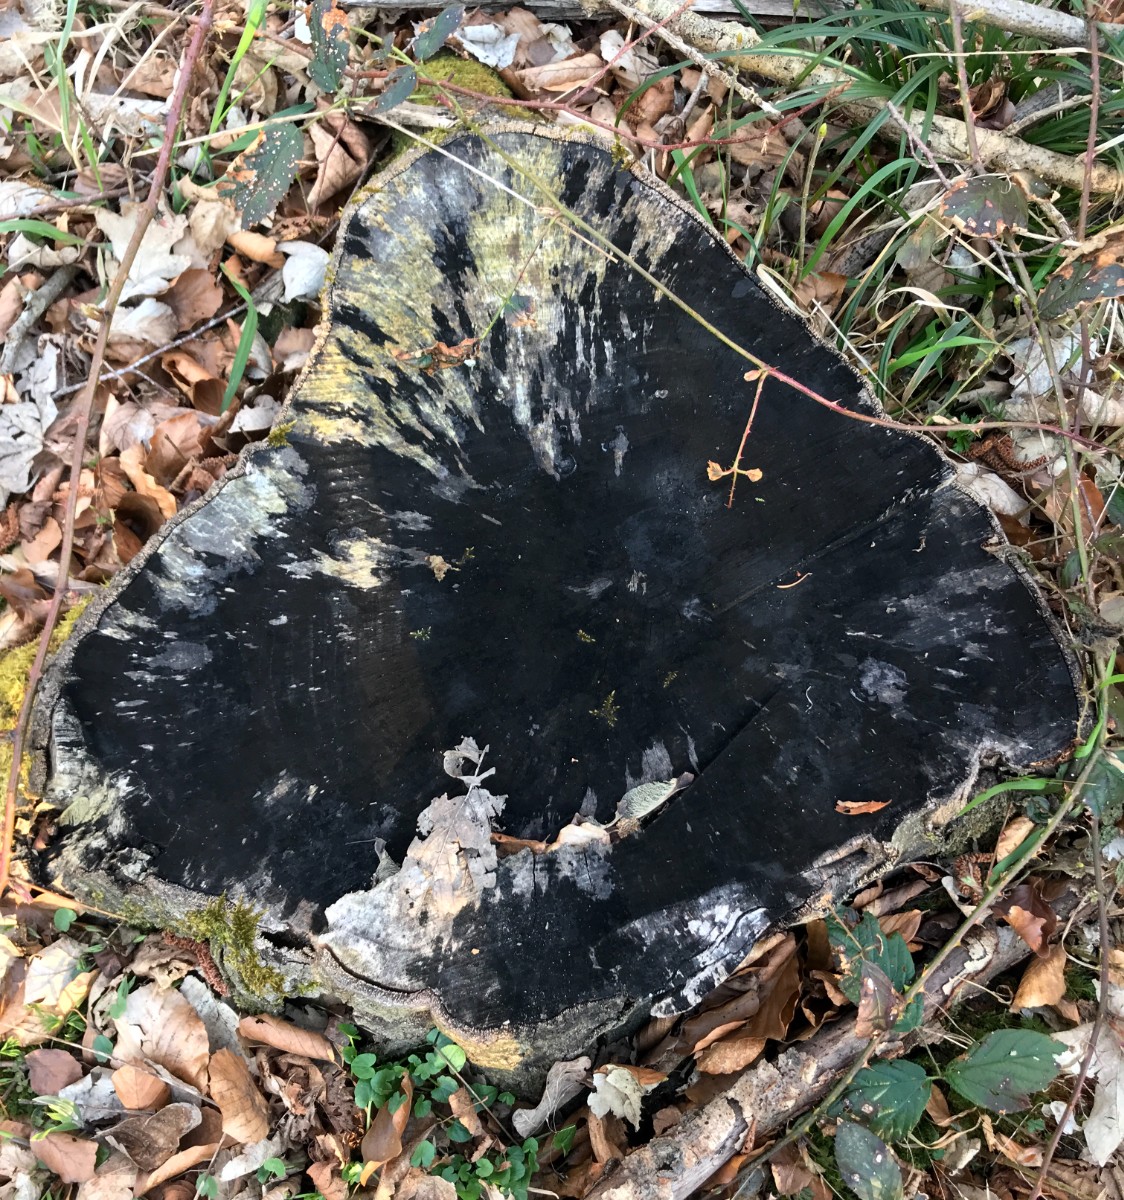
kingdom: Fungi
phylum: Ascomycota
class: Leotiomycetes
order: Helotiales
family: Helotiaceae
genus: Bispora
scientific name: Bispora pallescens
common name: måtte-snitskive
